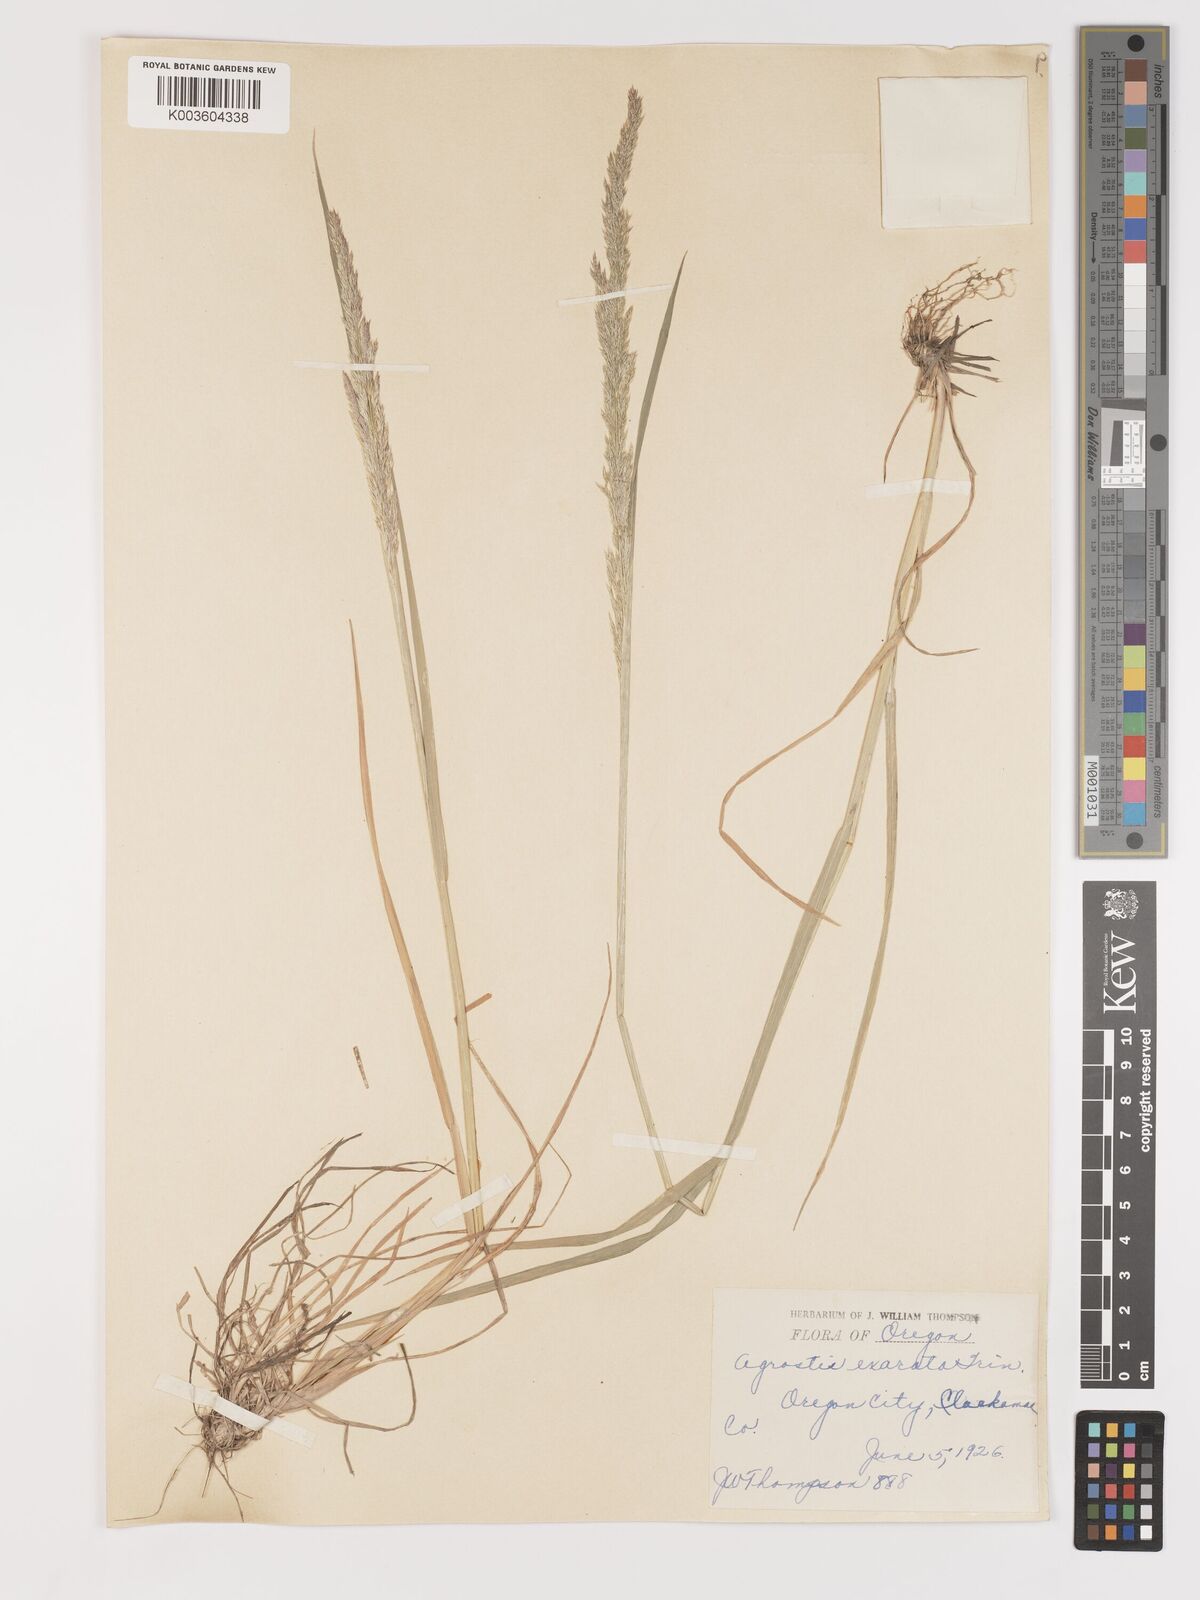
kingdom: Plantae
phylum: Tracheophyta
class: Liliopsida
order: Poales
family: Poaceae
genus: Agrostis
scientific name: Agrostis exarata
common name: Spike bent
